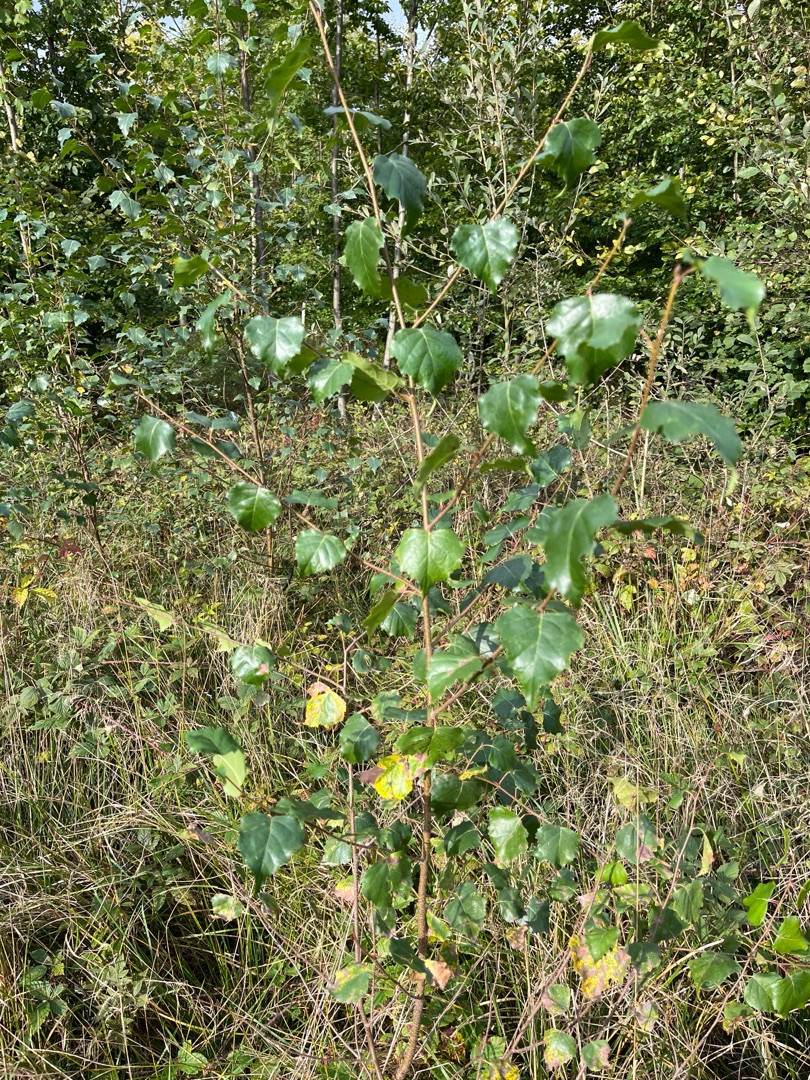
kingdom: Plantae
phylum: Tracheophyta
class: Magnoliopsida
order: Fagales
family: Betulaceae
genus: Betula
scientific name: Betula pendula
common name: Vorte-birk
